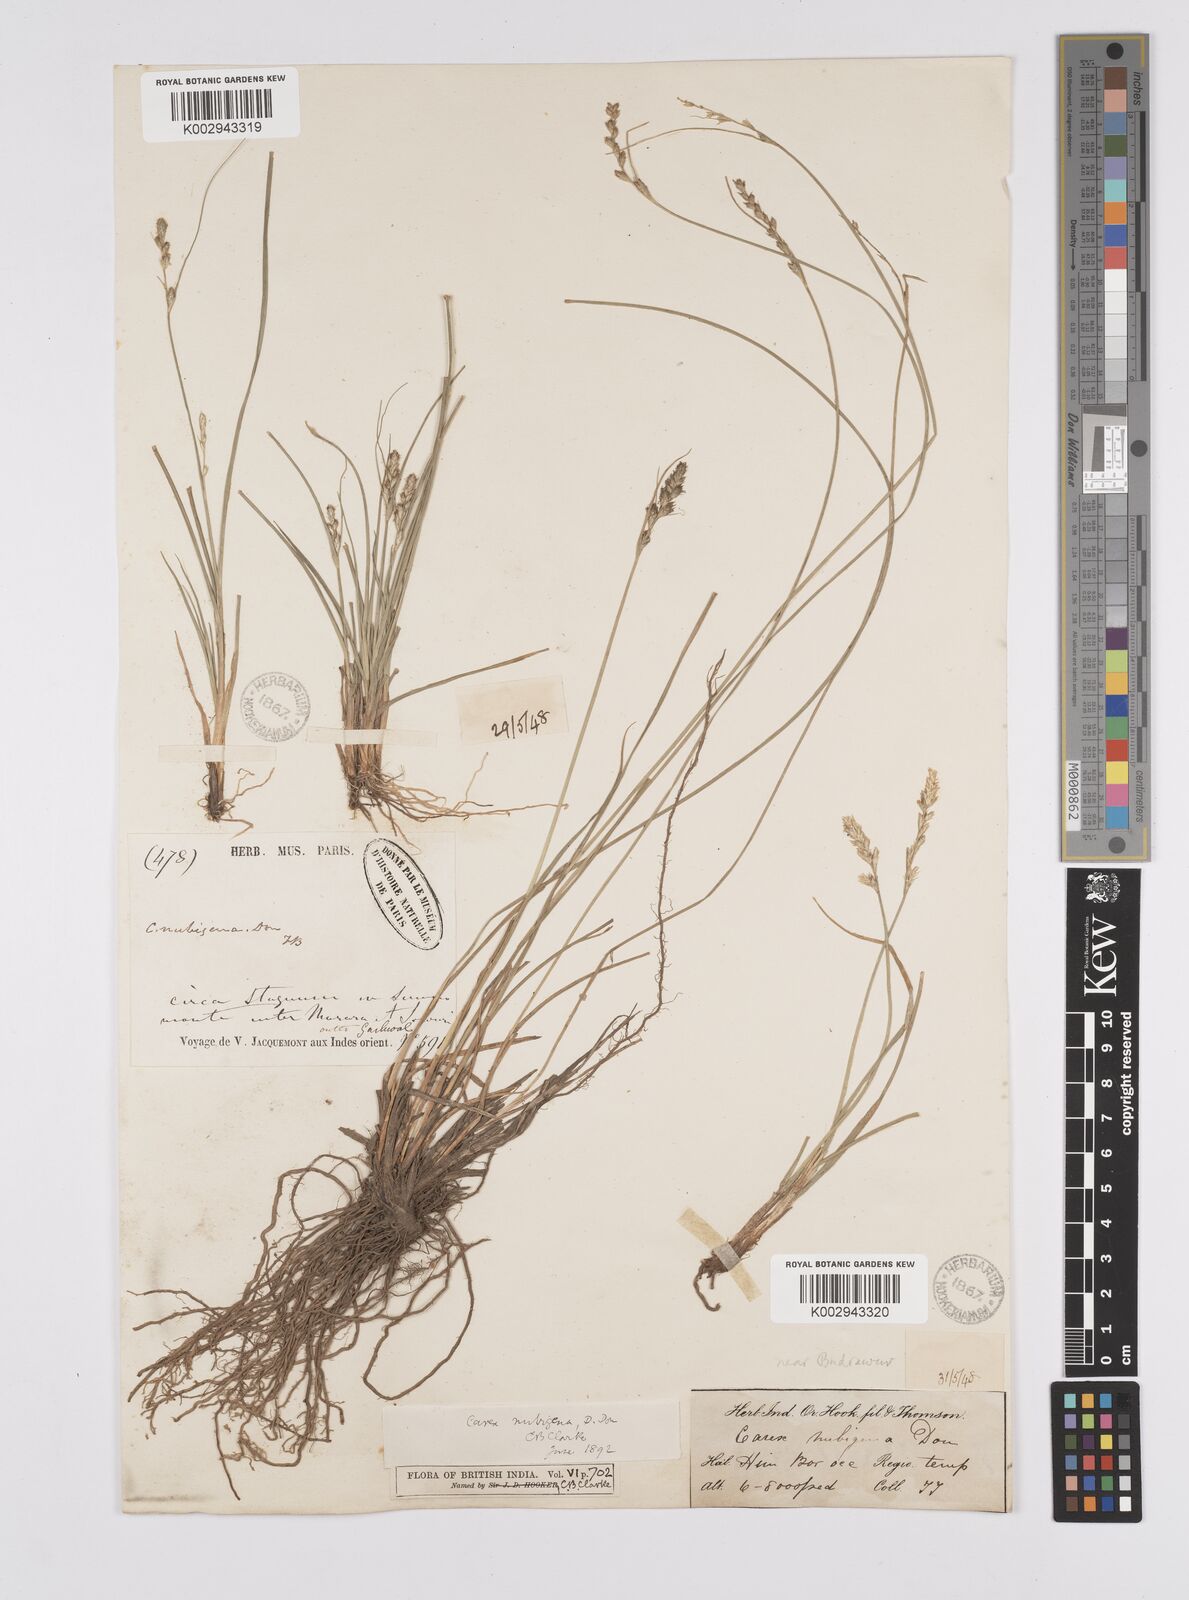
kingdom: Plantae
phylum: Tracheophyta
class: Liliopsida
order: Poales
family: Cyperaceae
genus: Carex
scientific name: Carex nubigena
